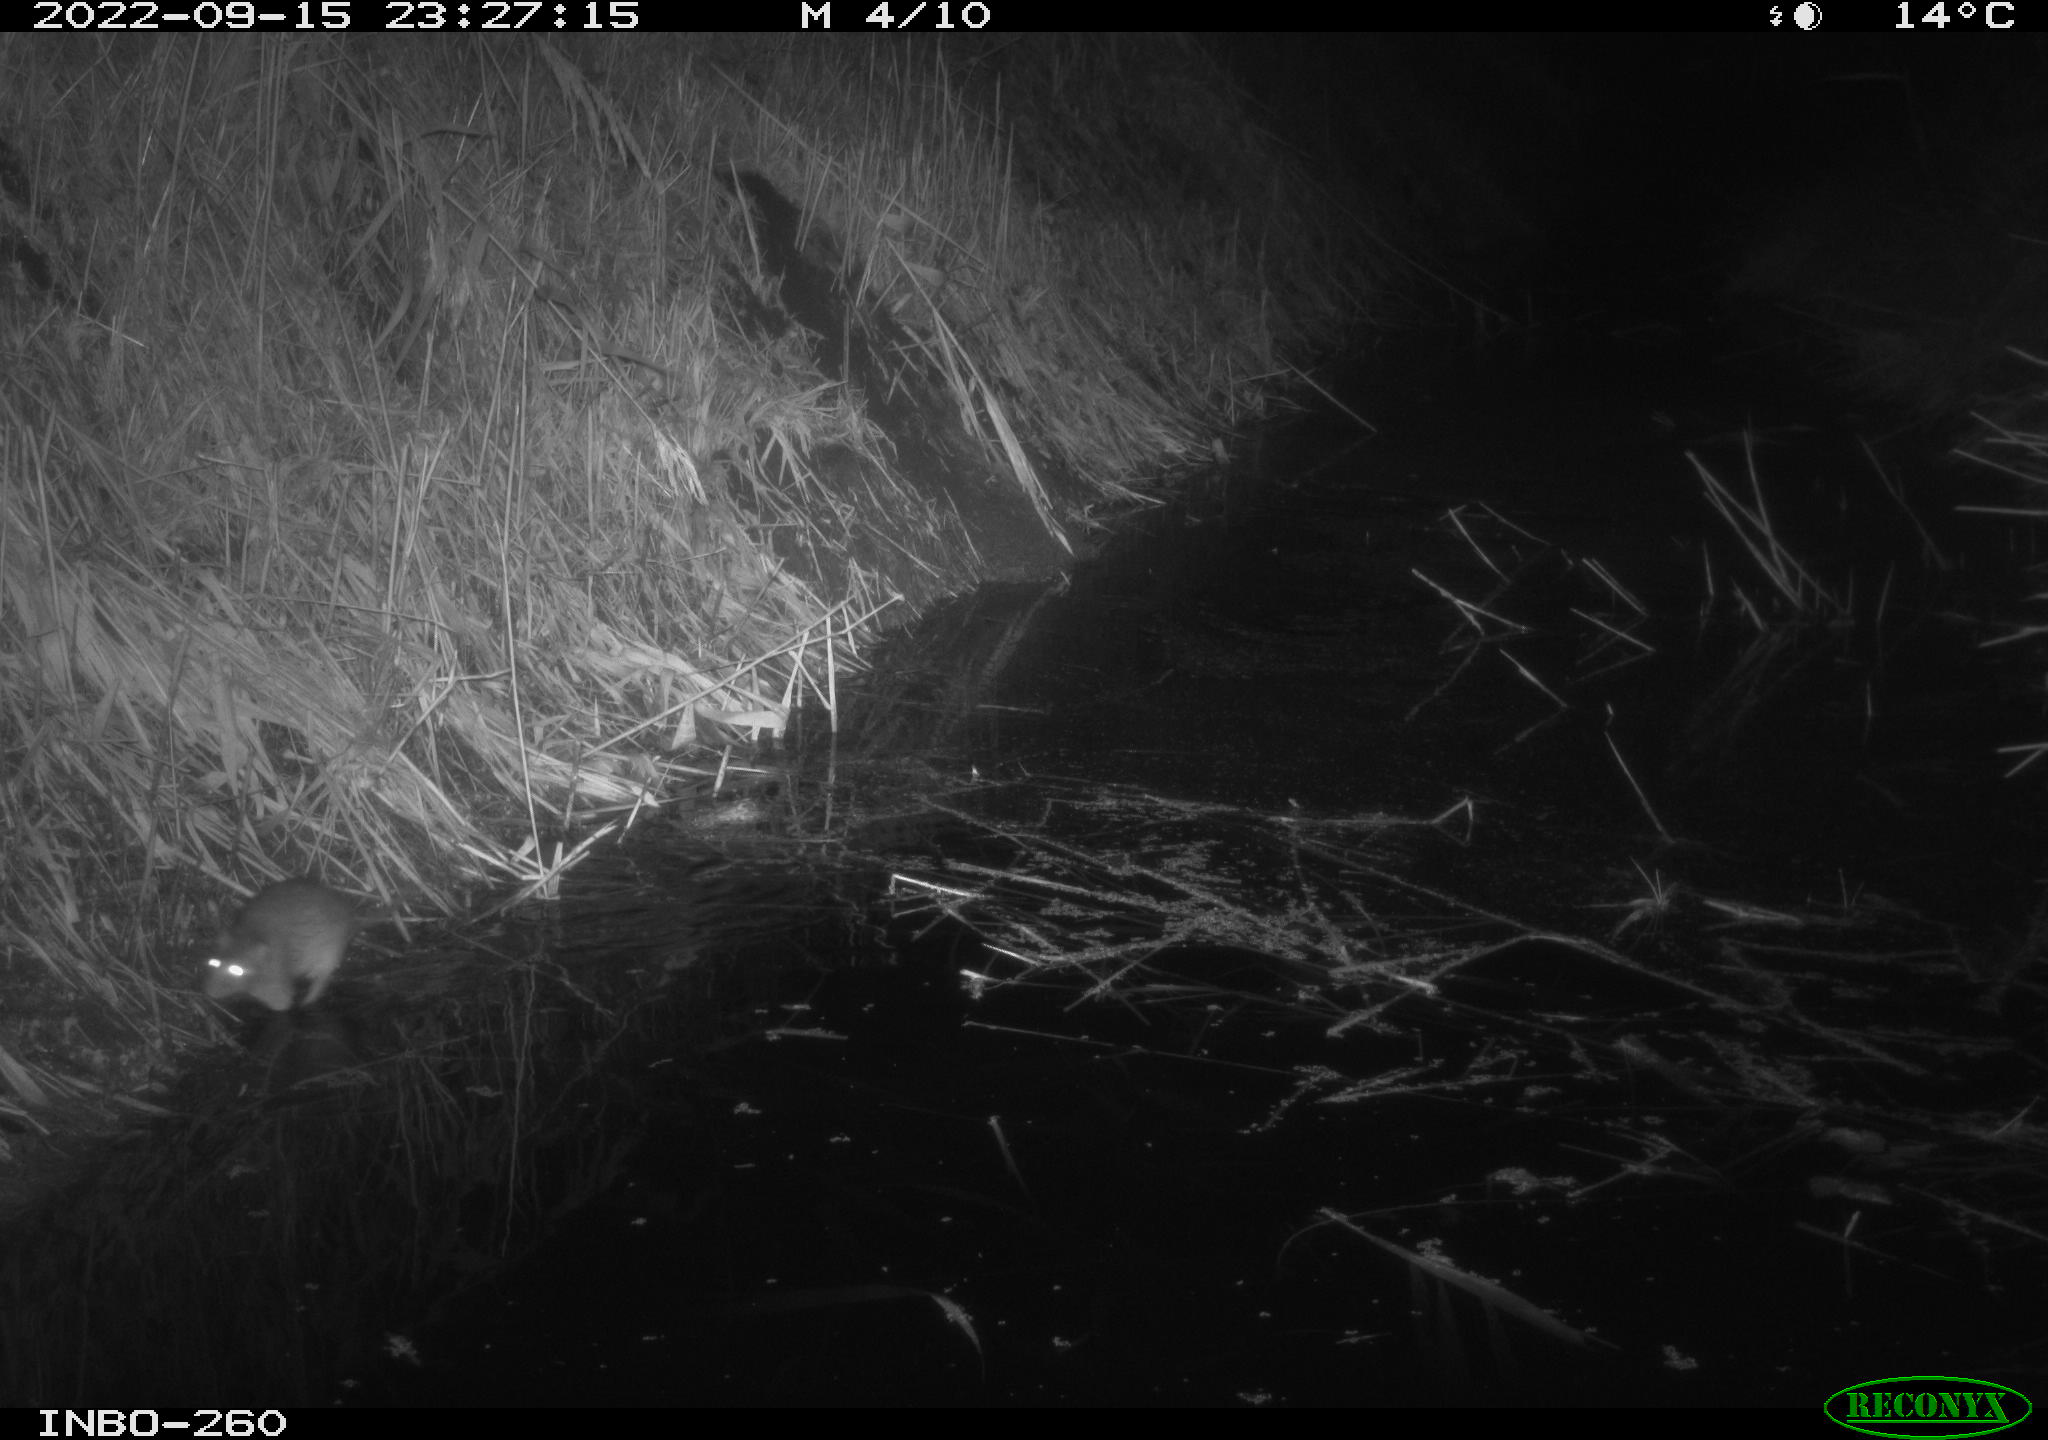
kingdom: Animalia
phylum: Chordata
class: Mammalia
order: Rodentia
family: Muridae
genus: Rattus
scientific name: Rattus norvegicus
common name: Brown rat
